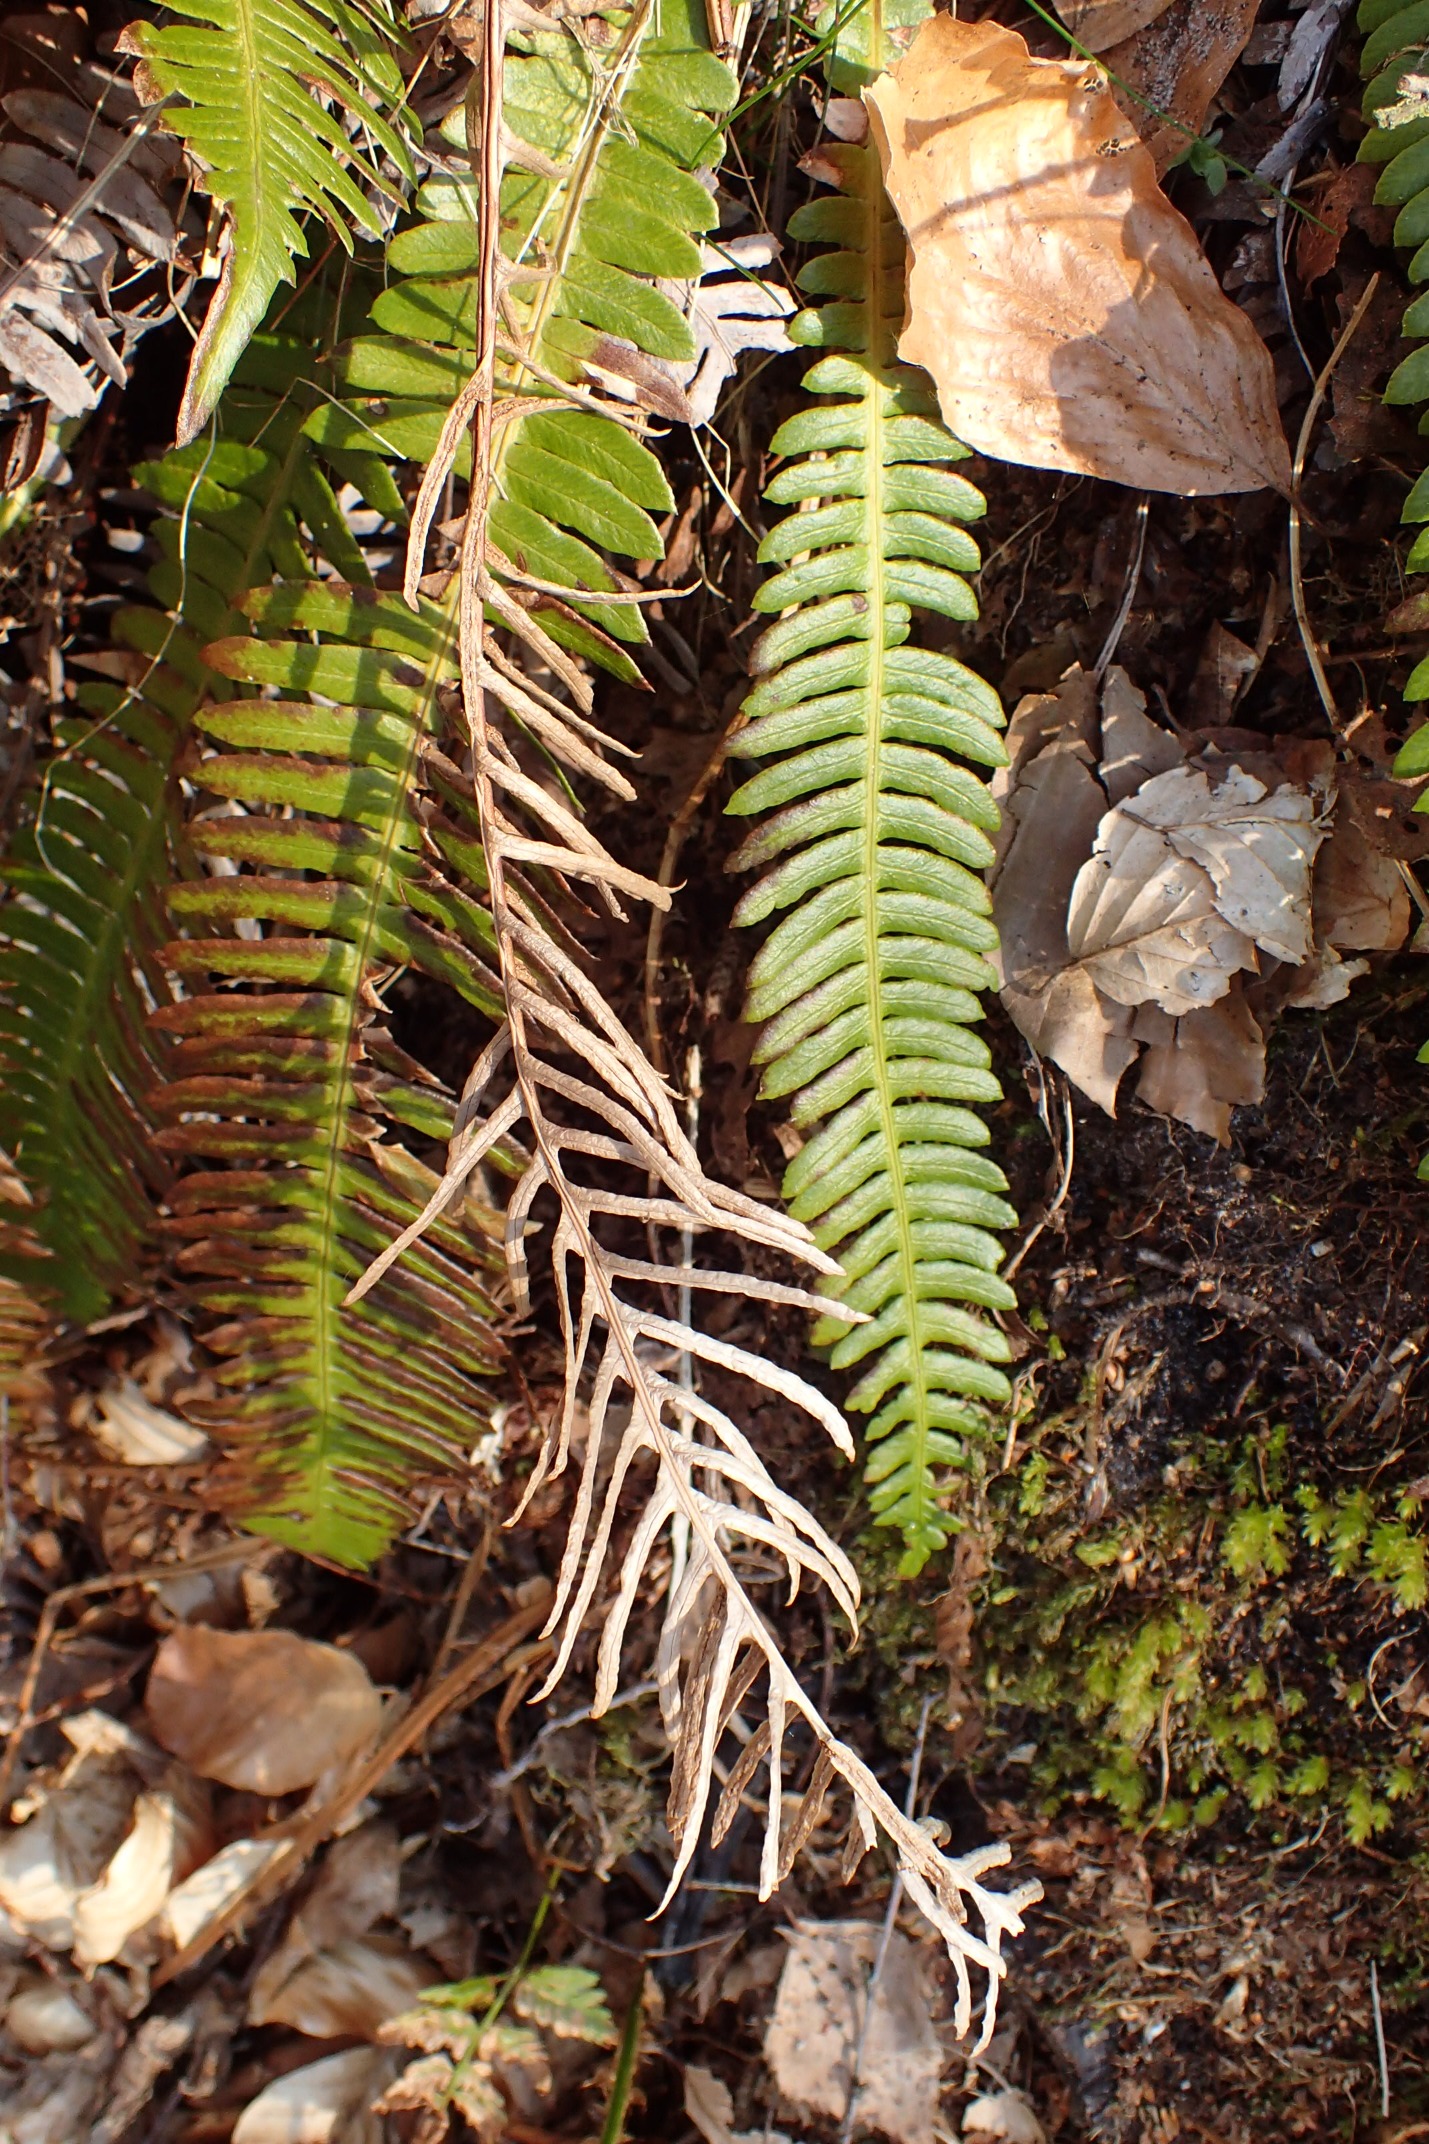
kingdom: Plantae
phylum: Tracheophyta
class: Polypodiopsida
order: Polypodiales
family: Blechnaceae
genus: Struthiopteris
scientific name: Struthiopteris spicant
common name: Kambregne
